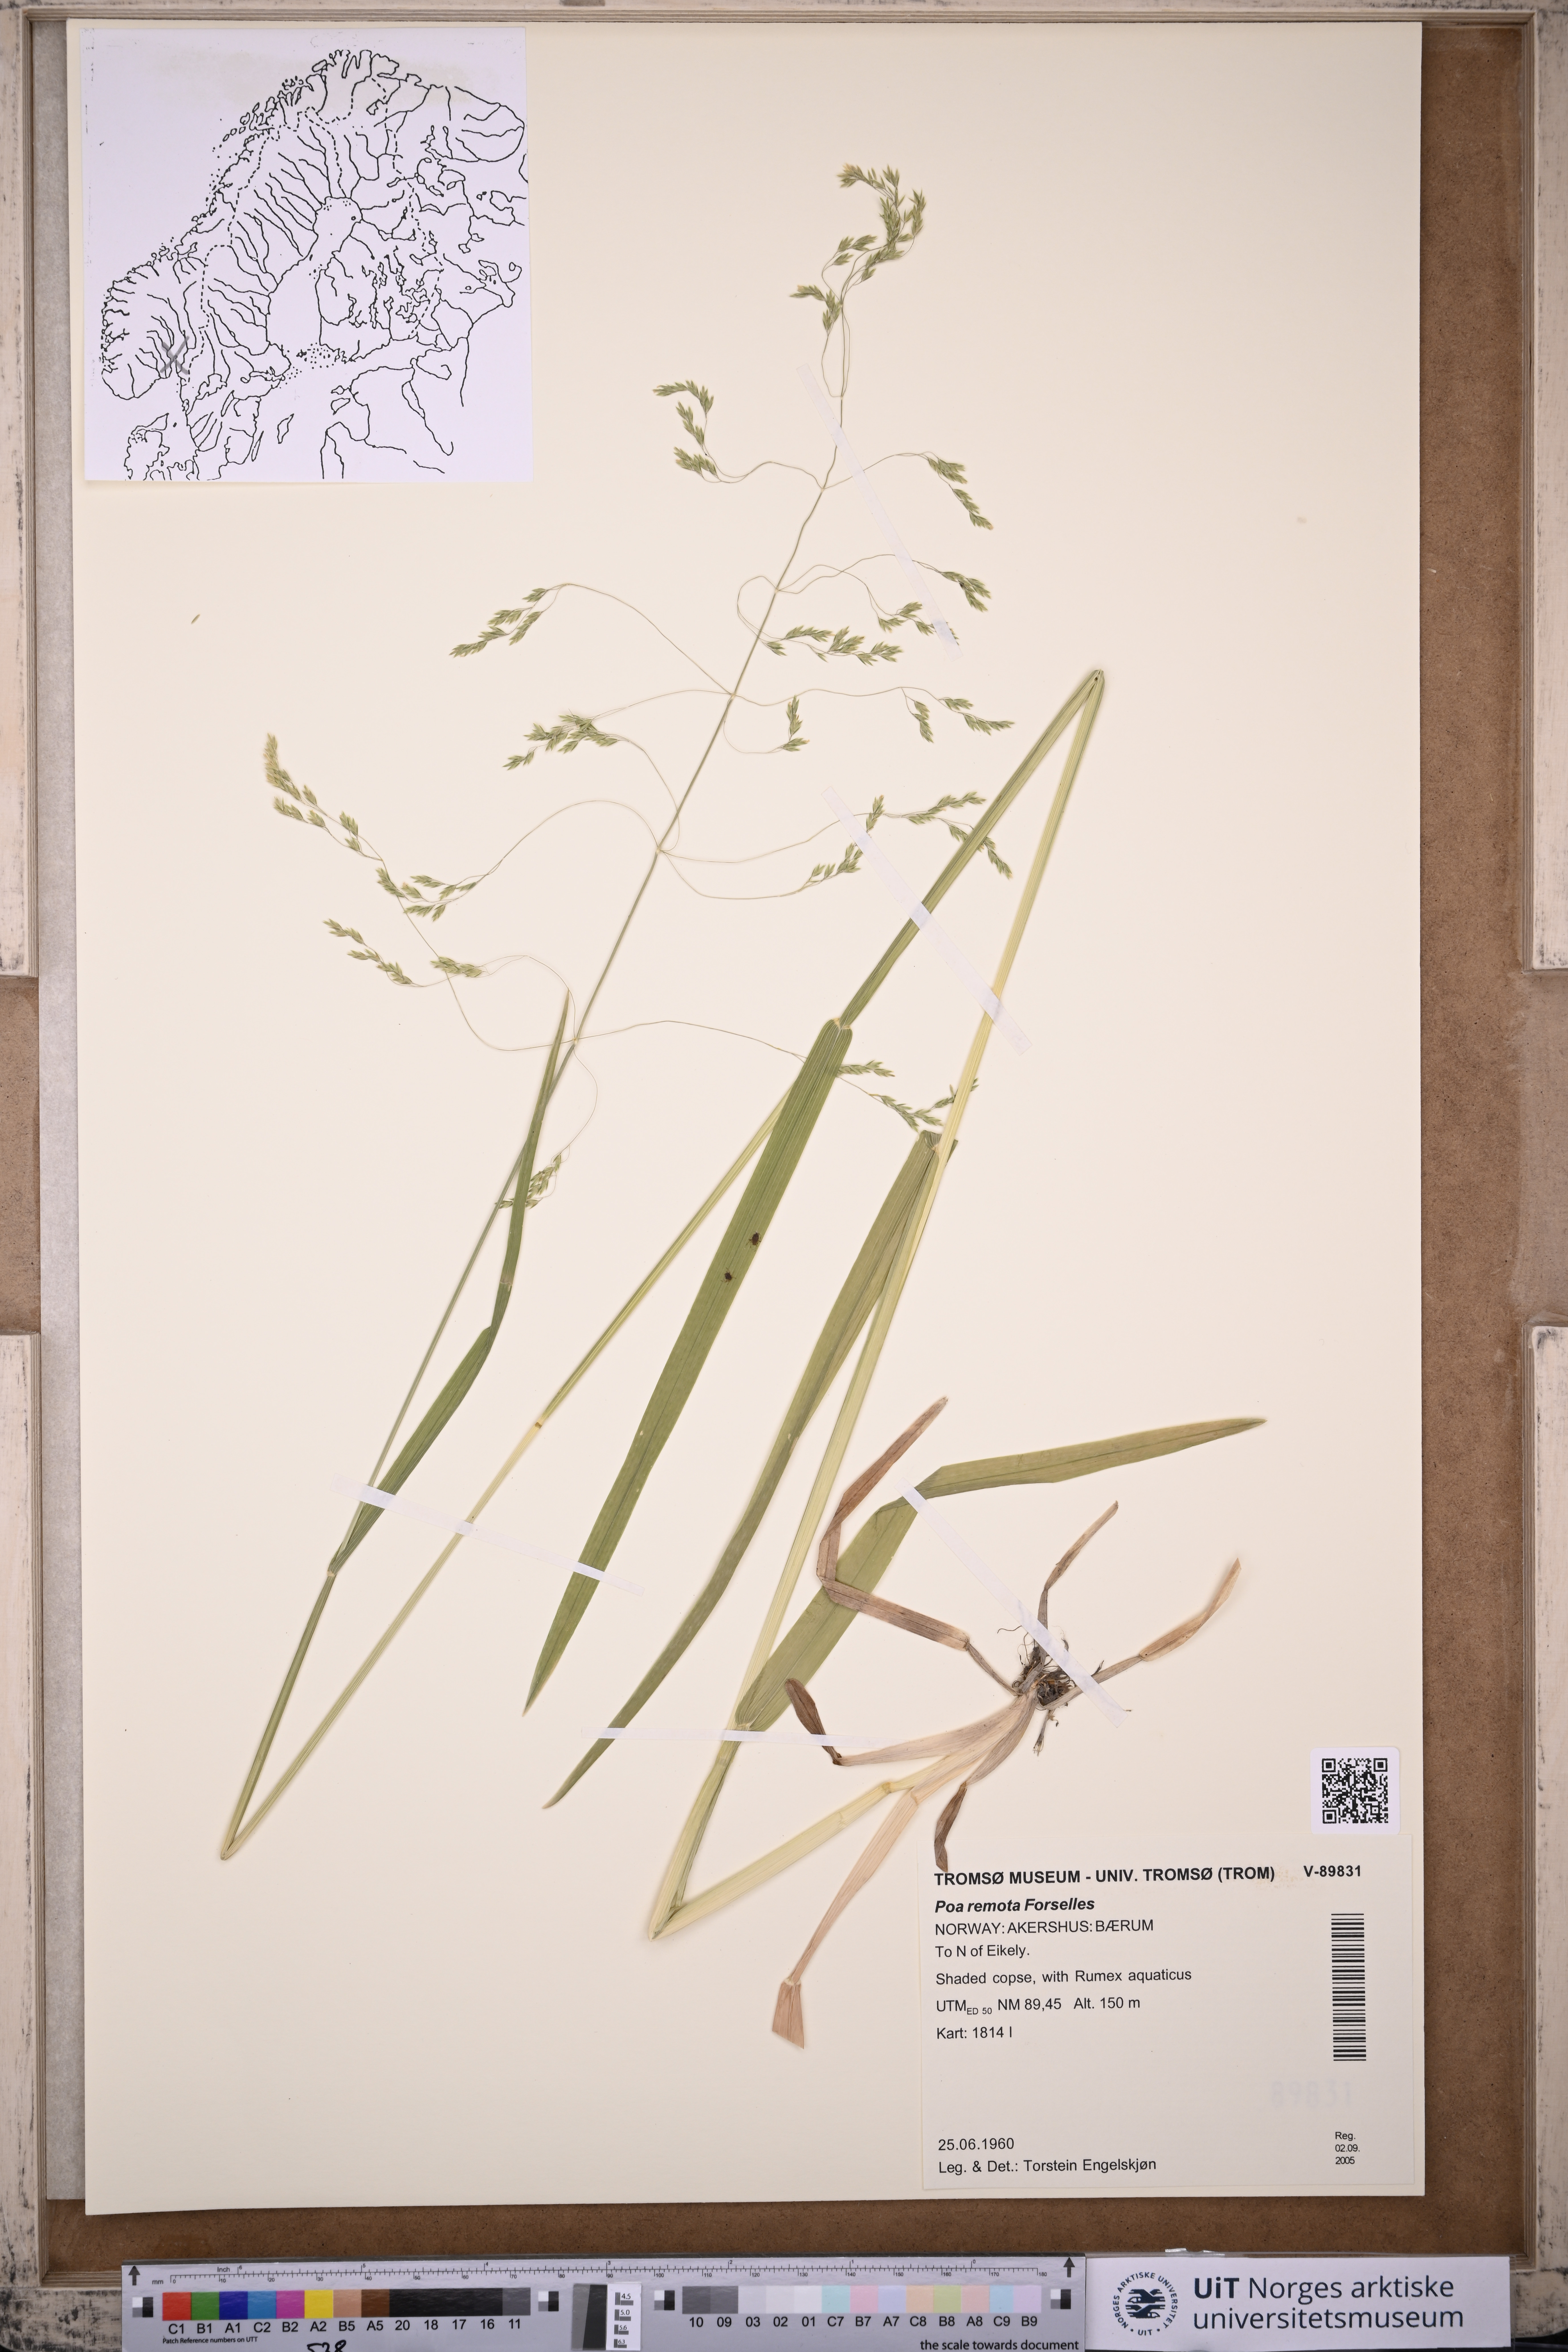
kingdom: Plantae
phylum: Tracheophyta
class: Liliopsida
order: Poales
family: Poaceae
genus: Poa
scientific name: Poa remota
